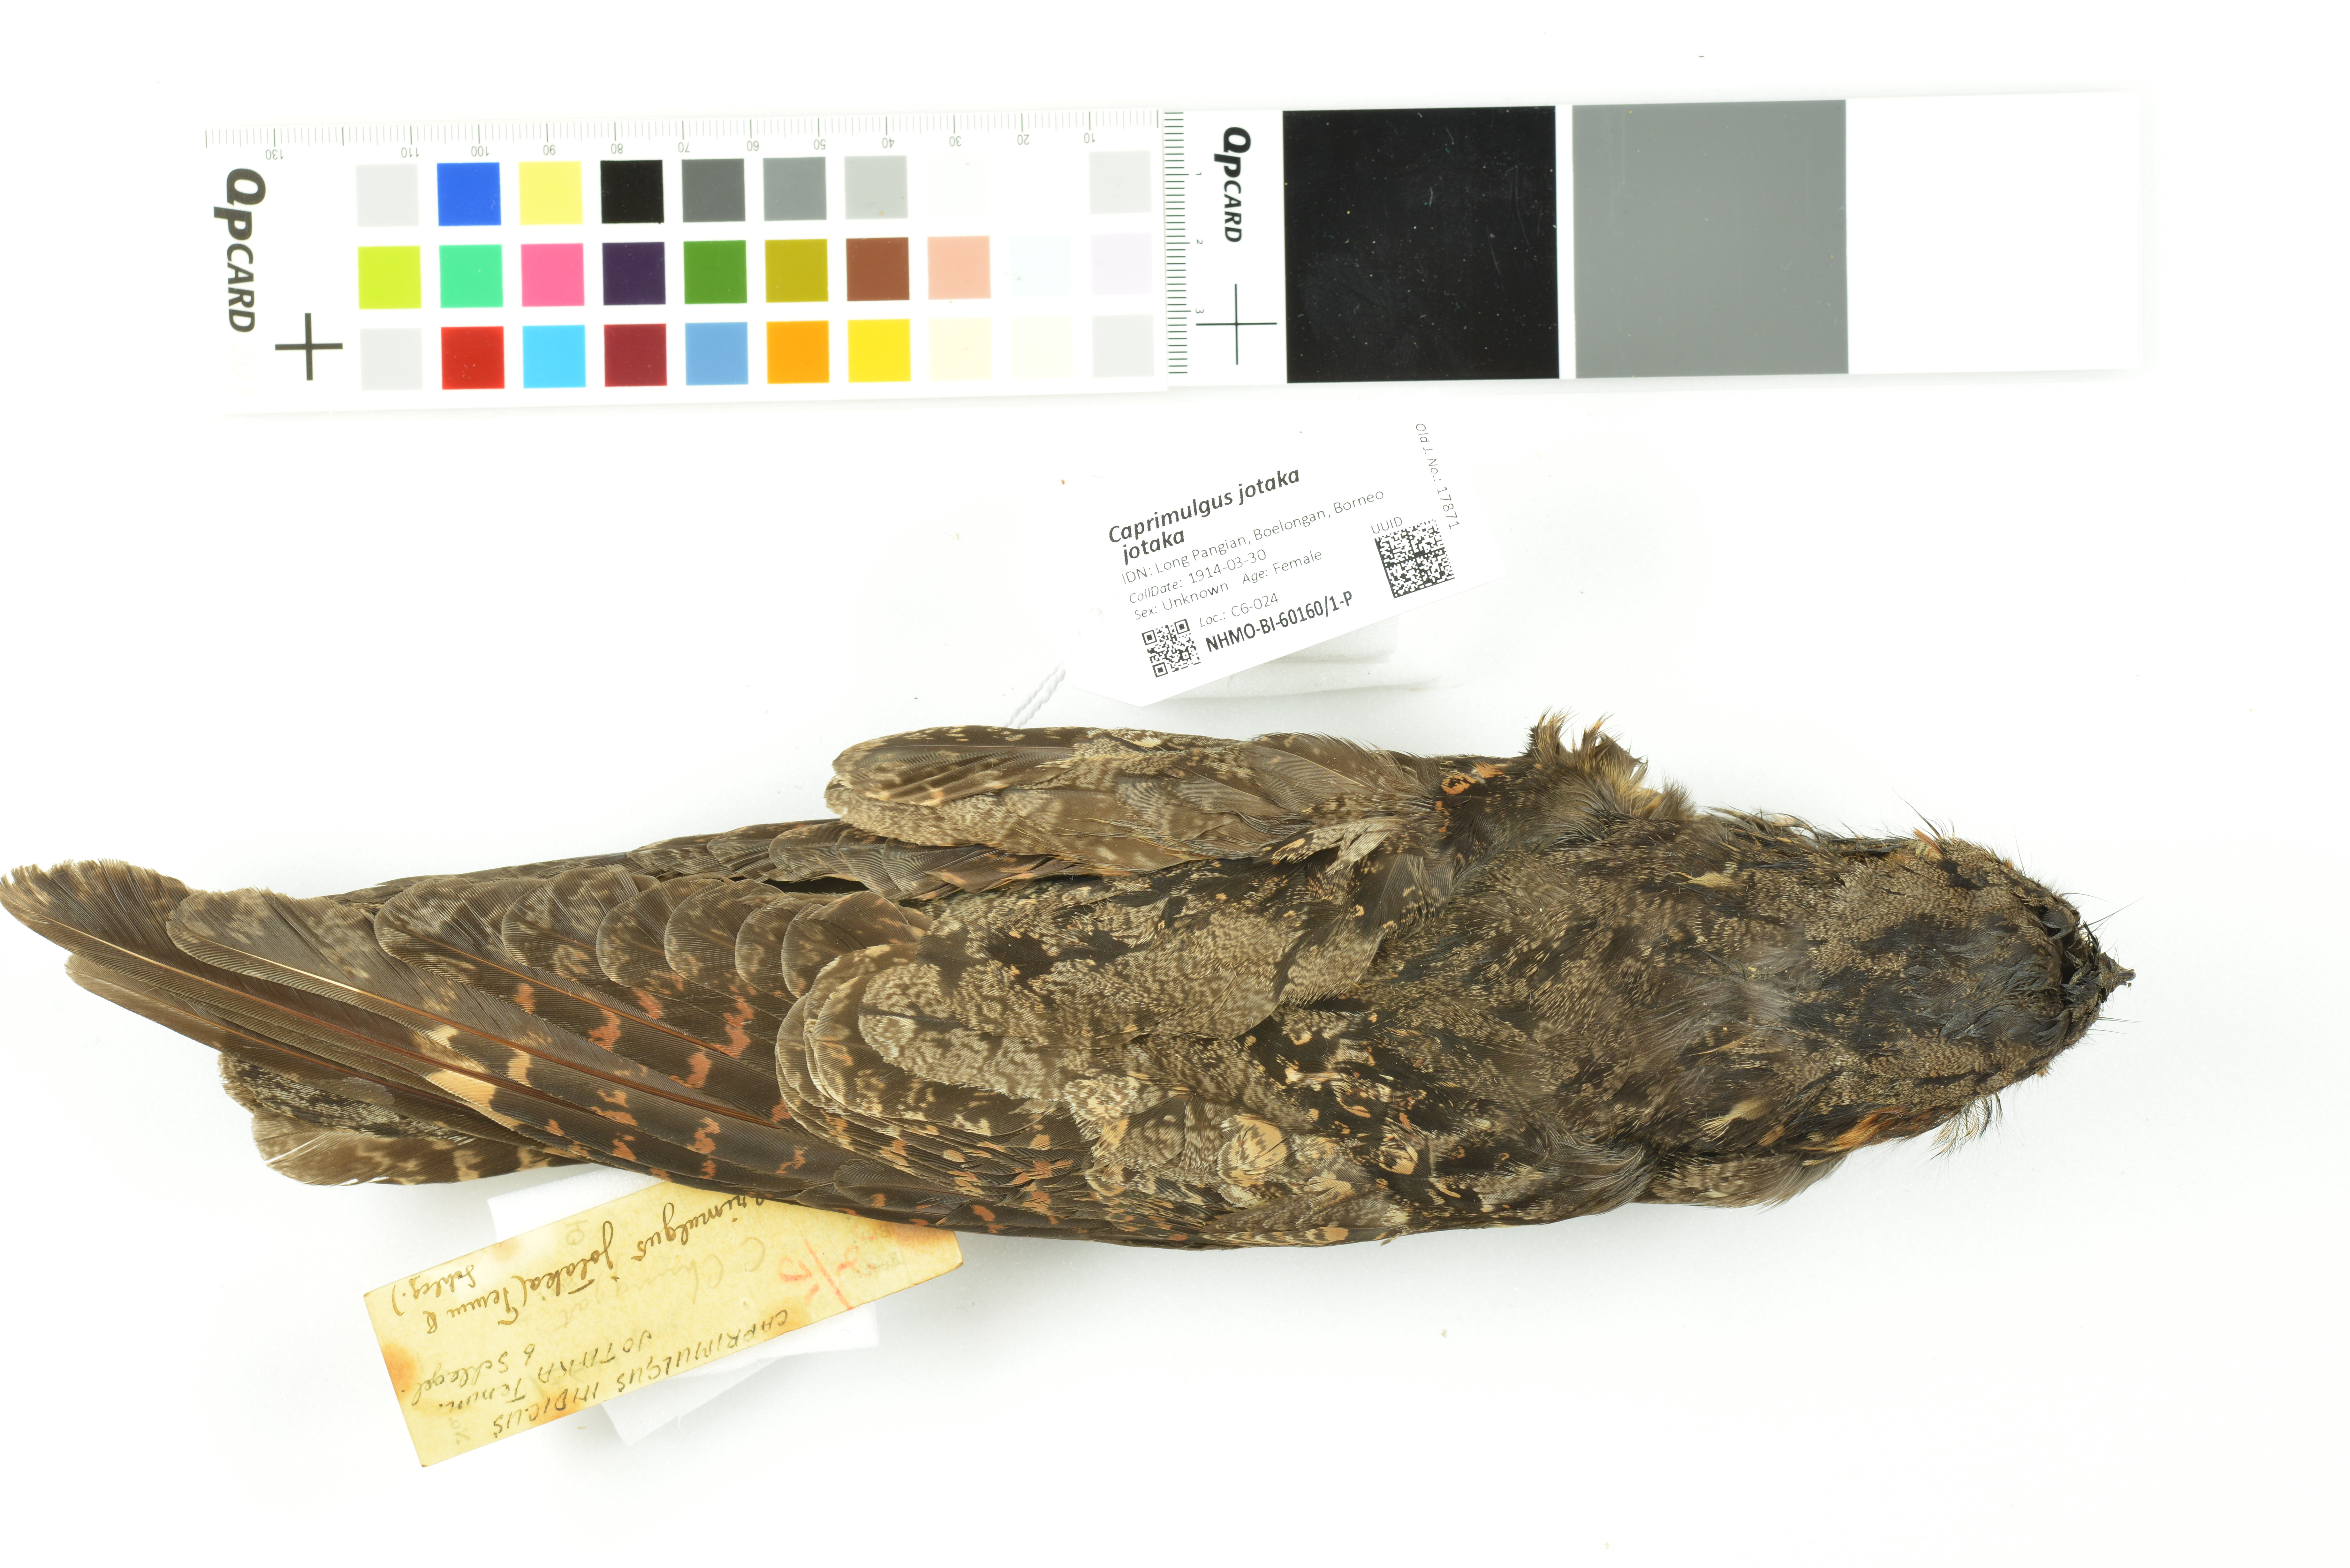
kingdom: Animalia
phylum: Chordata
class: Aves
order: Caprimulgiformes
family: Caprimulgidae
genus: Caprimulgus
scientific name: Caprimulgus jotaka
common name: Grey nightjar
